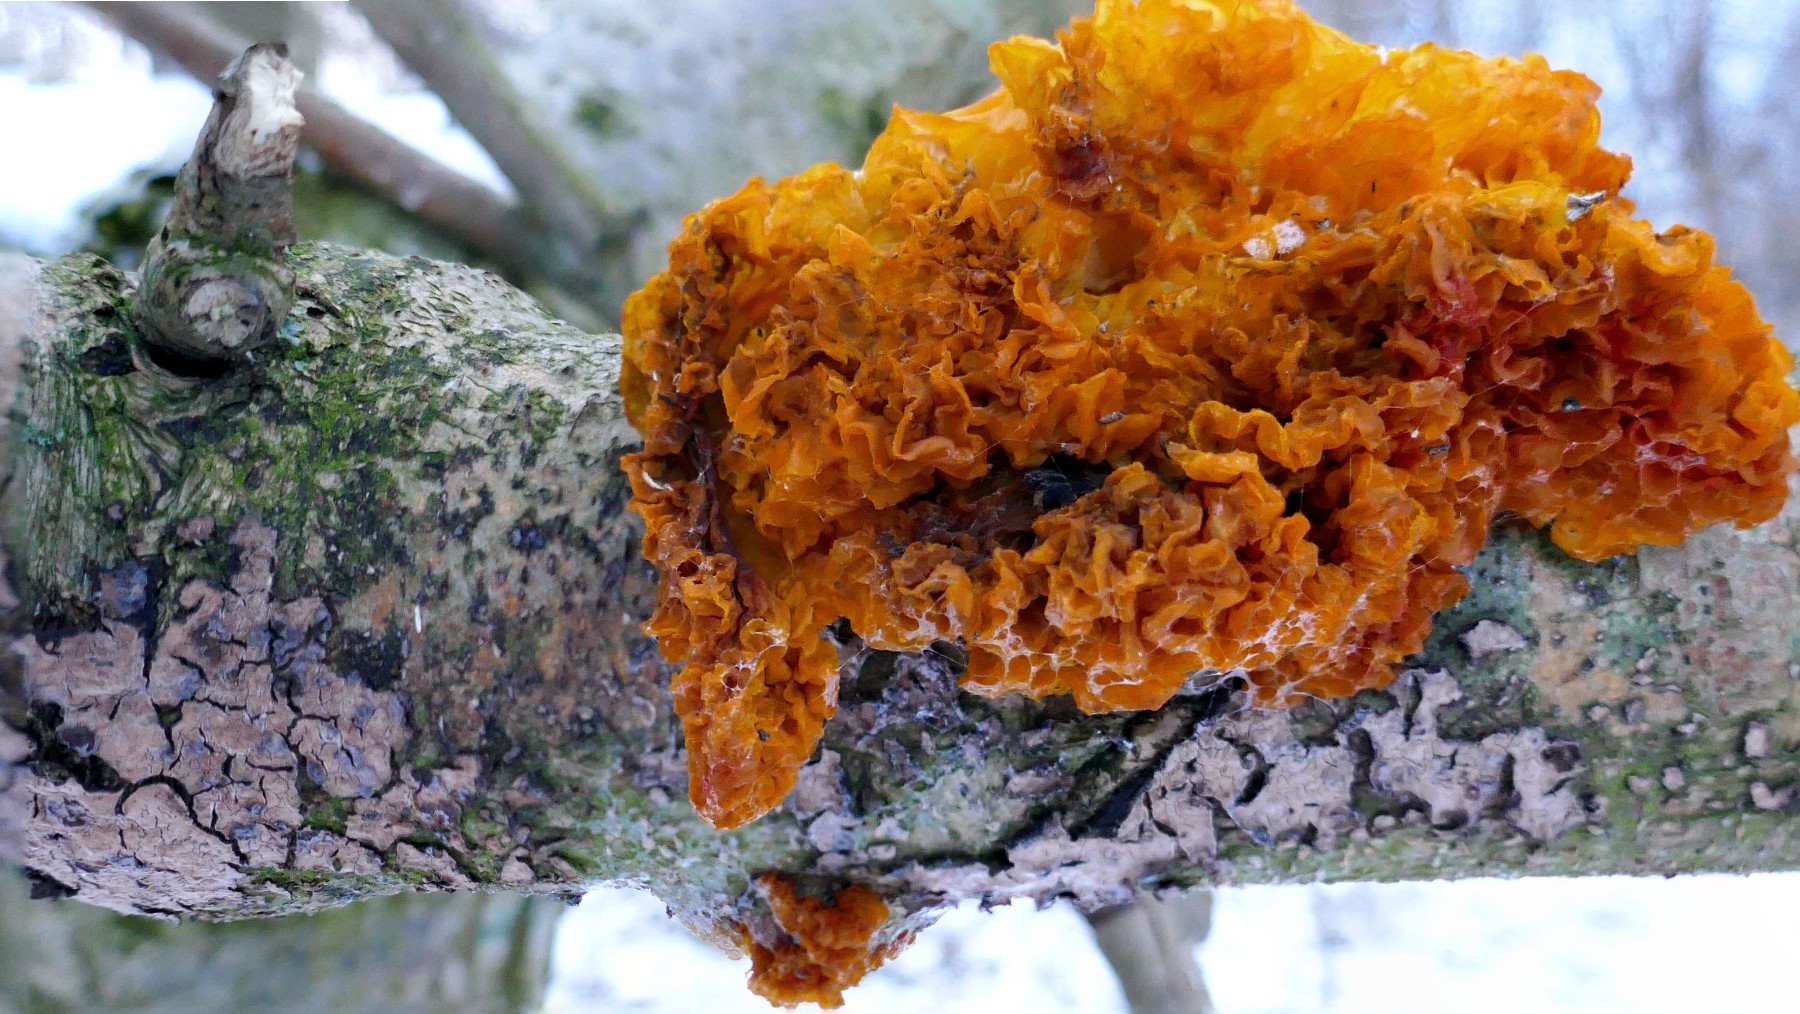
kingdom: Fungi
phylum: Basidiomycota
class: Tremellomycetes
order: Tremellales
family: Tremellaceae
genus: Tremella
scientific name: Tremella mesenterica
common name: gul bævresvamp
